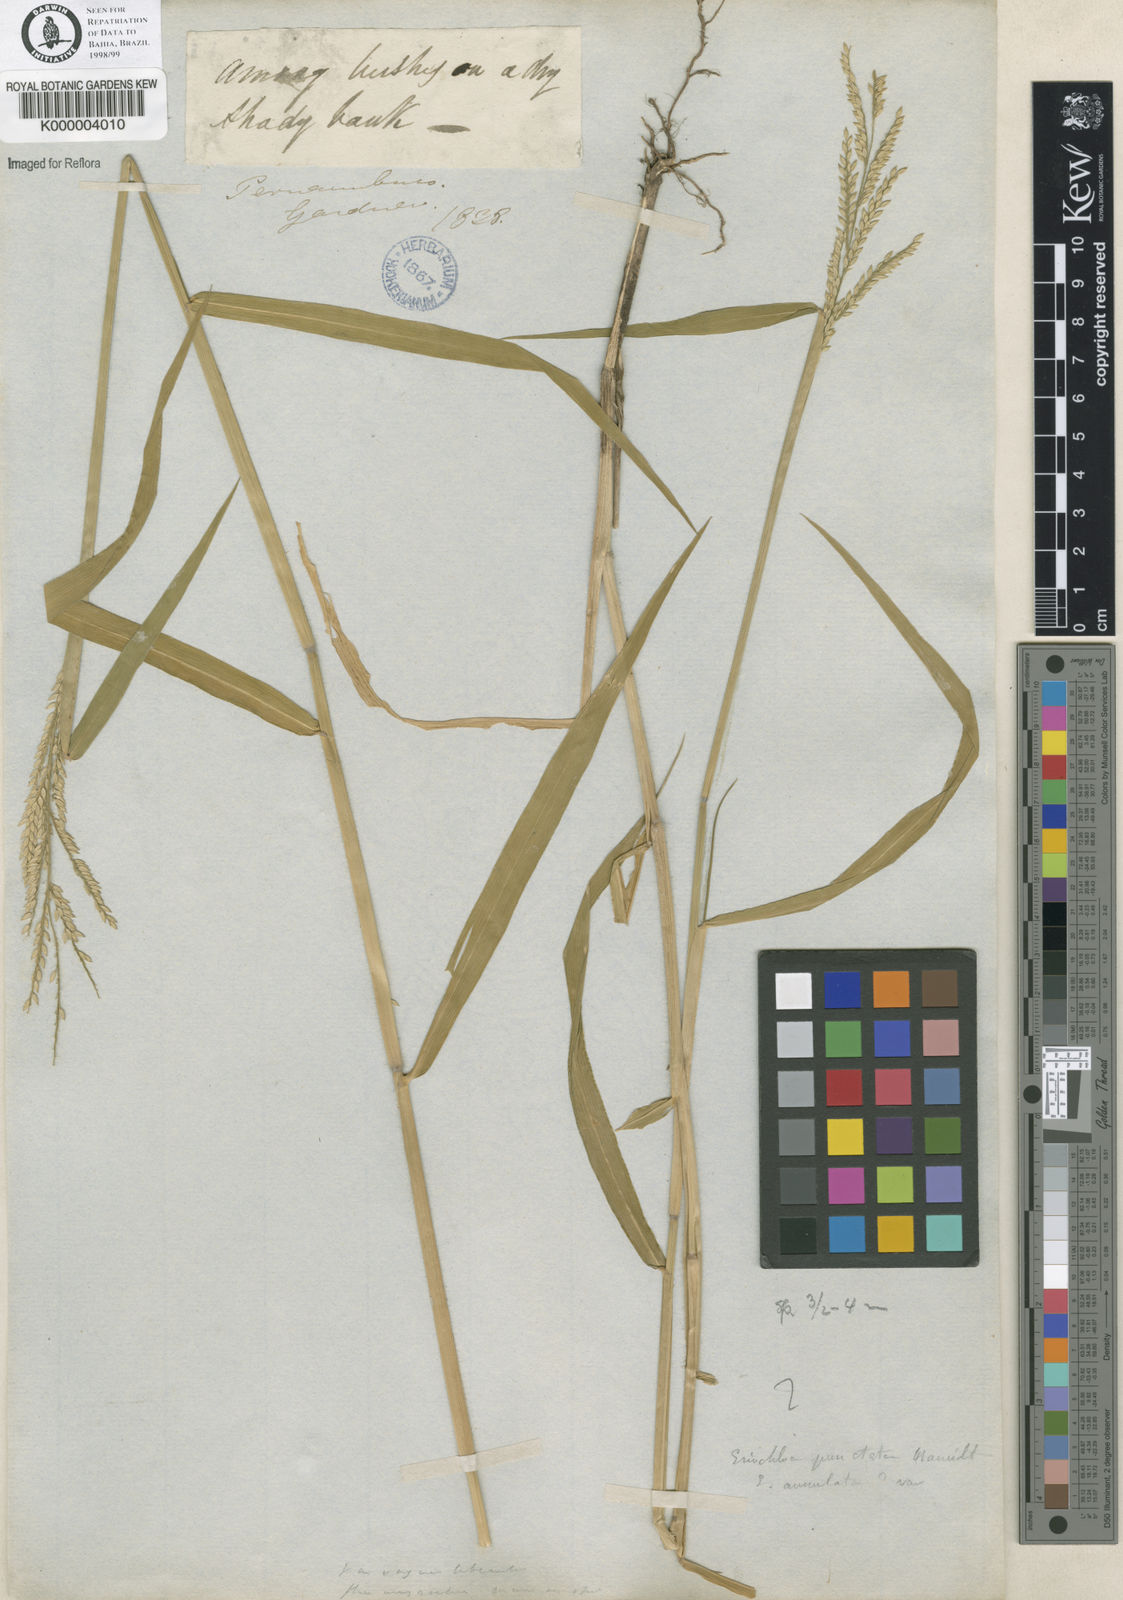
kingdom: Plantae
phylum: Tracheophyta
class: Liliopsida
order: Poales
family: Poaceae
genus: Eriochloa
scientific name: Eriochloa
